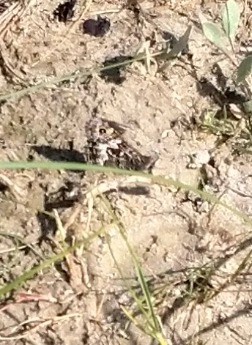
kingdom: Animalia
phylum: Arthropoda
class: Insecta
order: Lepidoptera
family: Nymphalidae
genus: Hipparchia
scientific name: Hipparchia semele
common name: Sandrandøje
